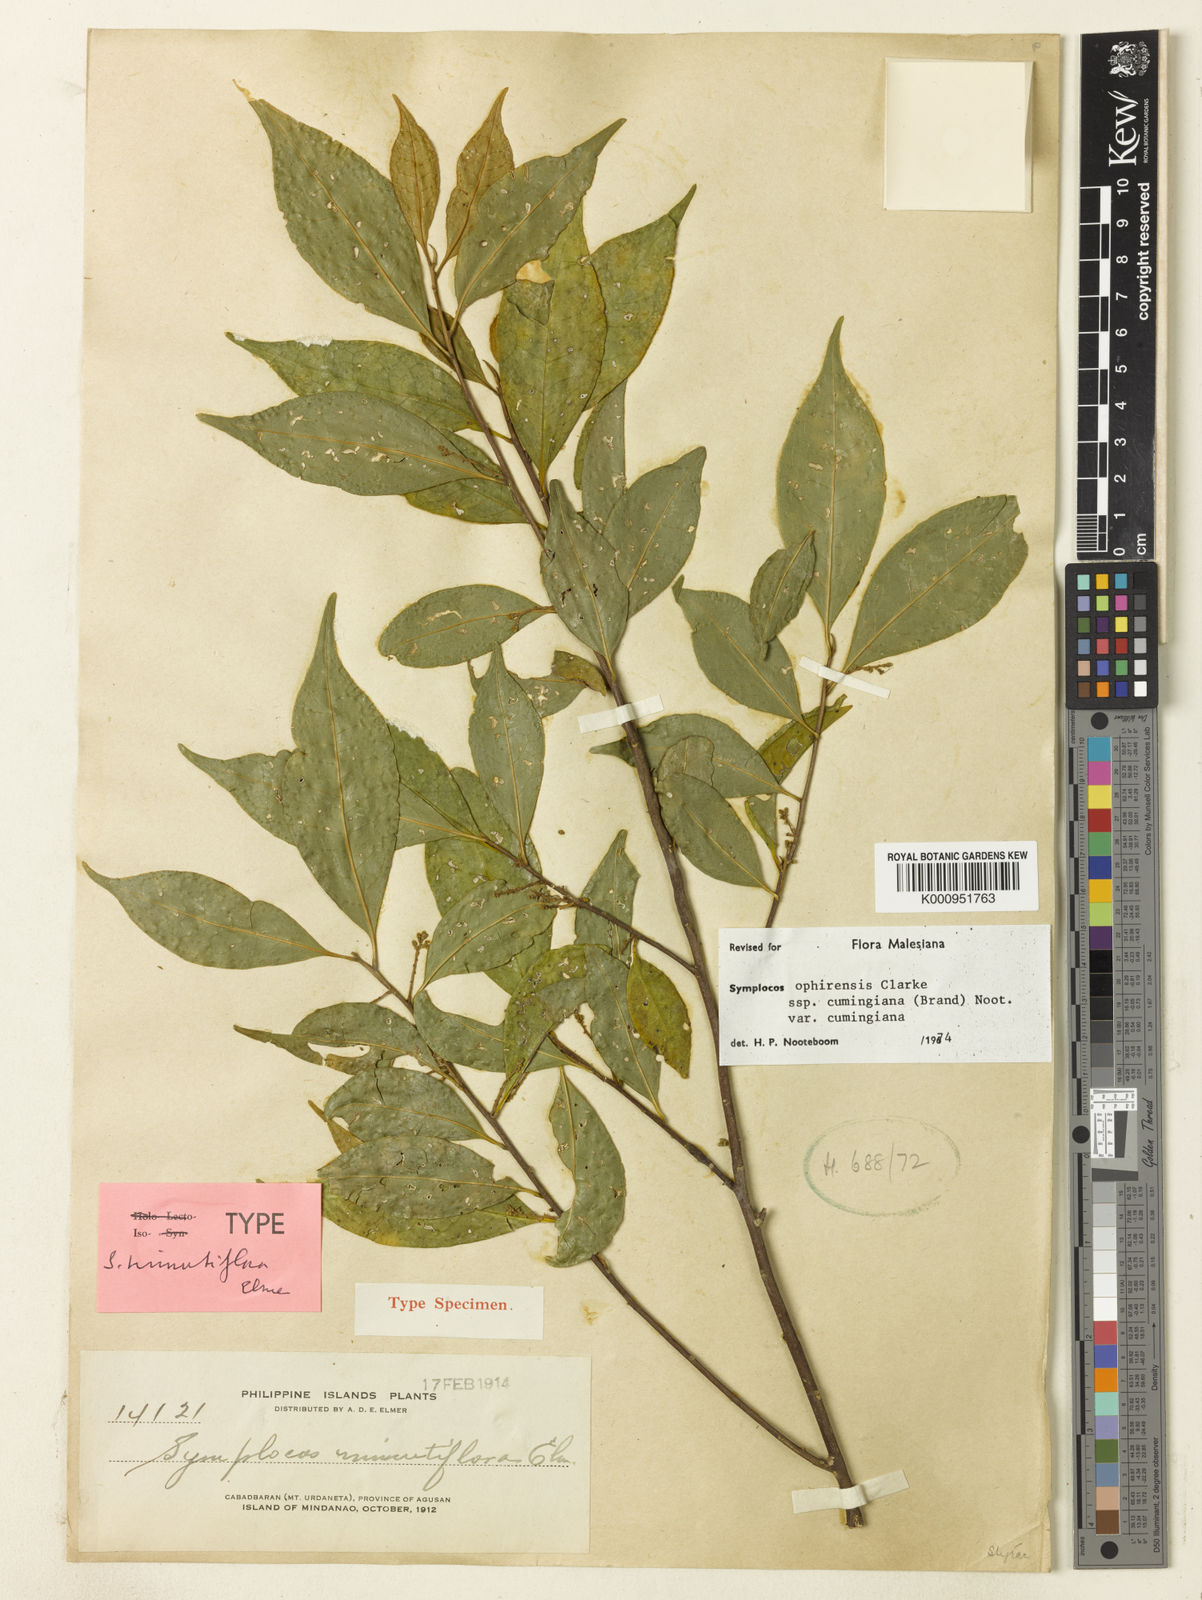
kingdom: Plantae
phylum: Tracheophyta
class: Magnoliopsida
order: Ericales
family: Symplocaceae
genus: Symplocos
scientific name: Symplocos ophirensis
